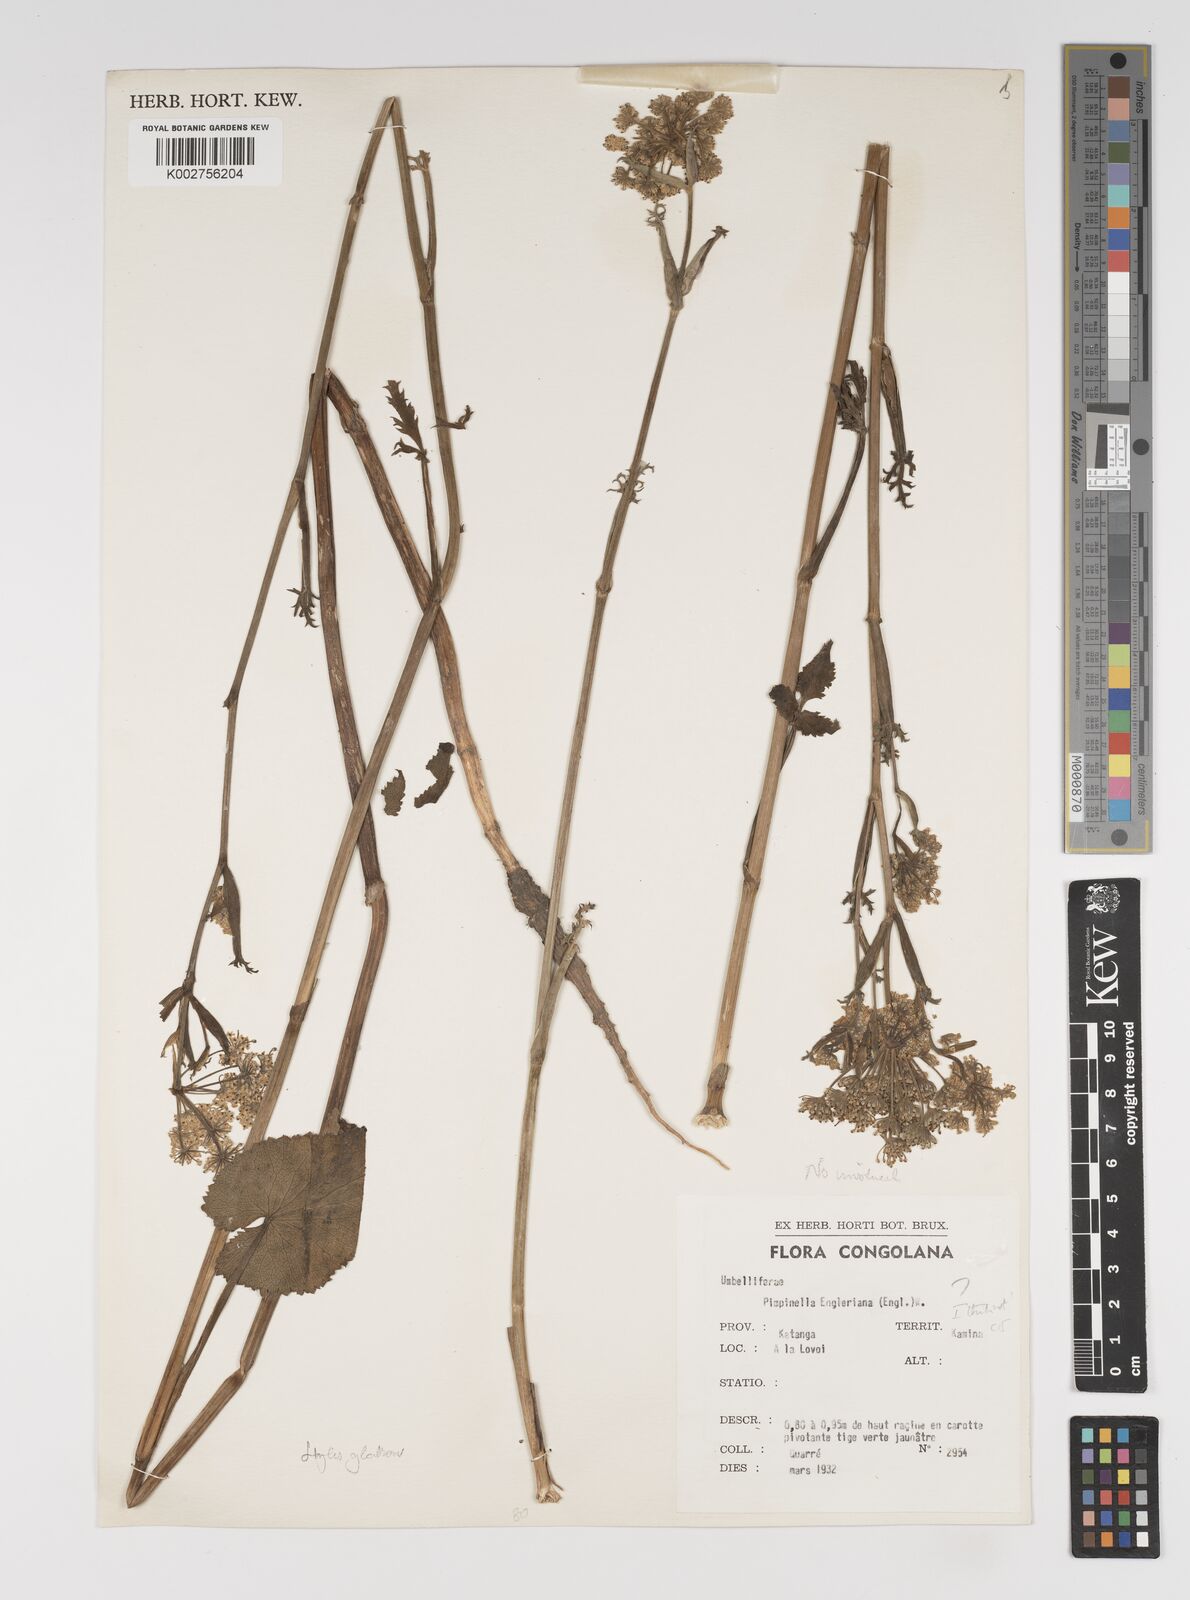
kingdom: Plantae
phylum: Tracheophyta
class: Magnoliopsida
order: Apiales
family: Apiaceae
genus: Pimpinella
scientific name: Pimpinella kingdon-wardii
